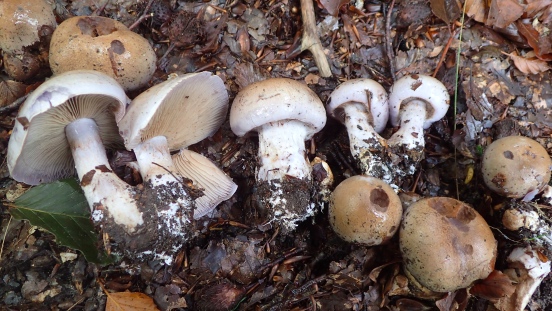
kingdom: Fungi
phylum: Basidiomycota
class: Agaricomycetes
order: Agaricales
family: Cortinariaceae
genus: Cortinarius
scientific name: Cortinarius largus
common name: violetrandet slørhat
